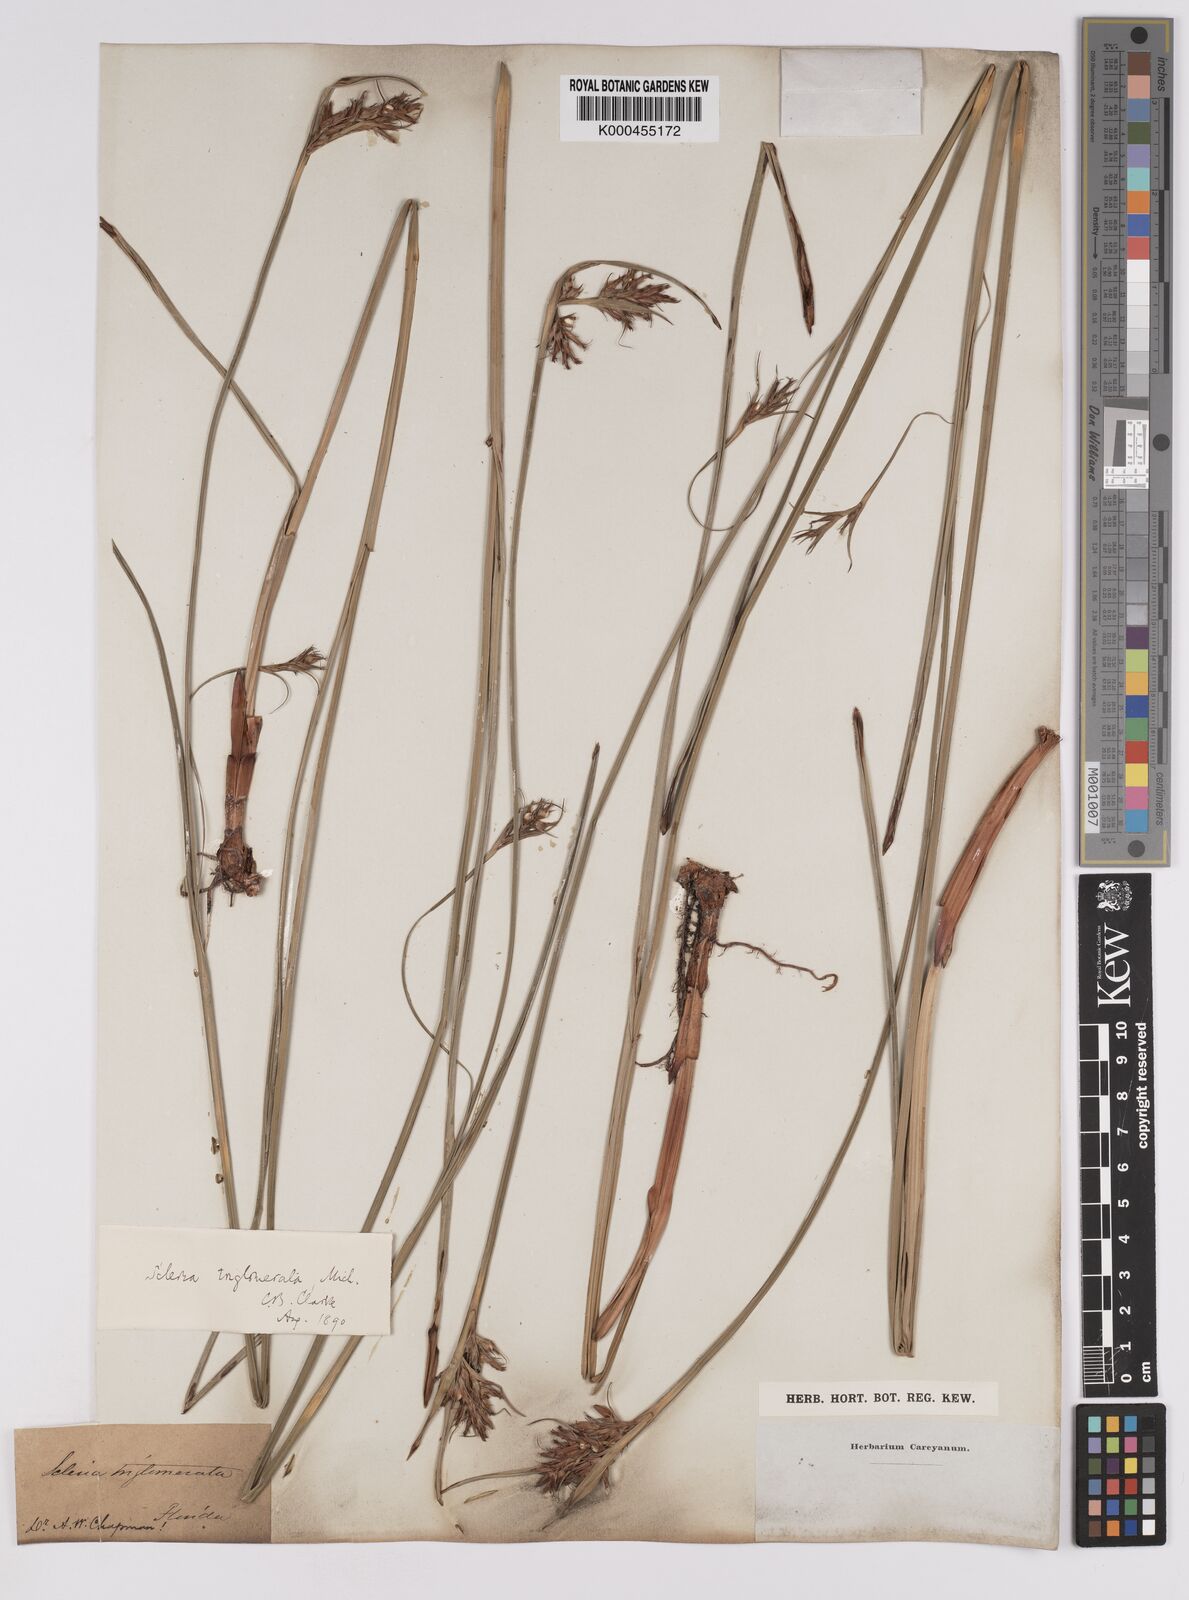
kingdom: Plantae
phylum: Tracheophyta
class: Liliopsida
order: Poales
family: Cyperaceae
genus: Scleria
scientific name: Scleria triglomerata
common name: Whip nutrush
